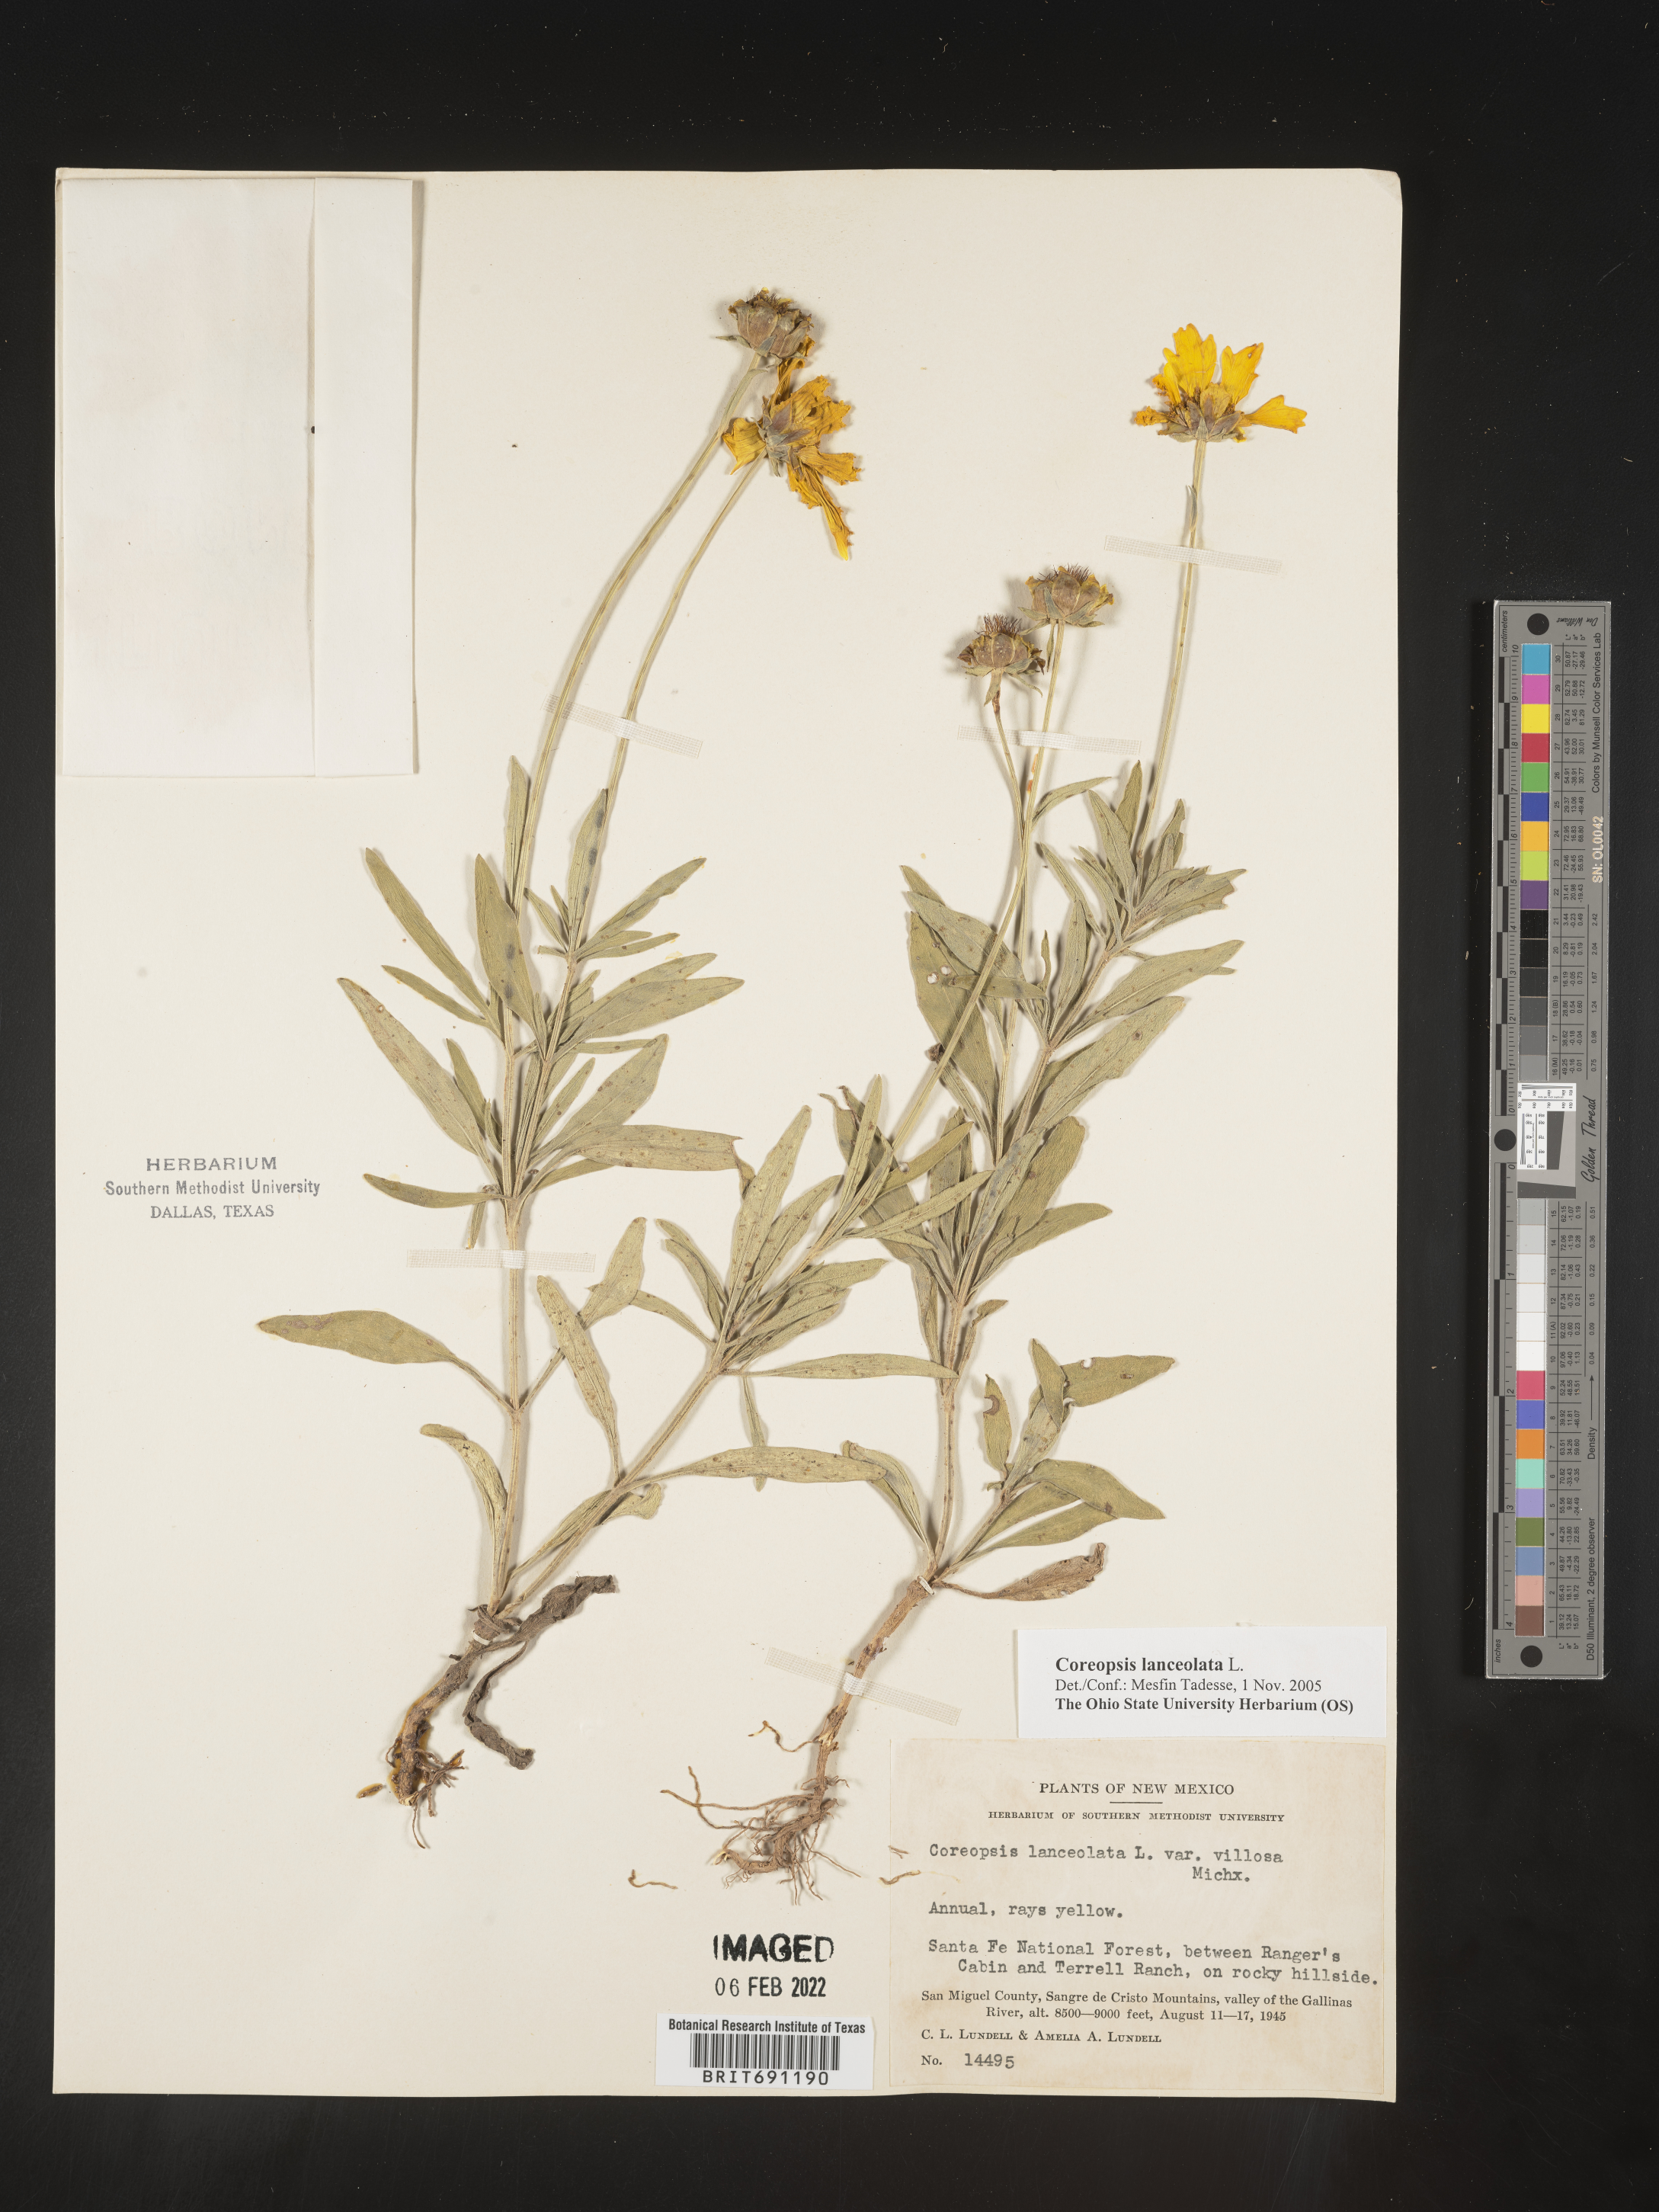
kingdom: Plantae
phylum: Tracheophyta
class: Magnoliopsida
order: Asterales
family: Asteraceae
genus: Coreopsis
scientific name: Coreopsis lanceolata
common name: Garden coreopsis
